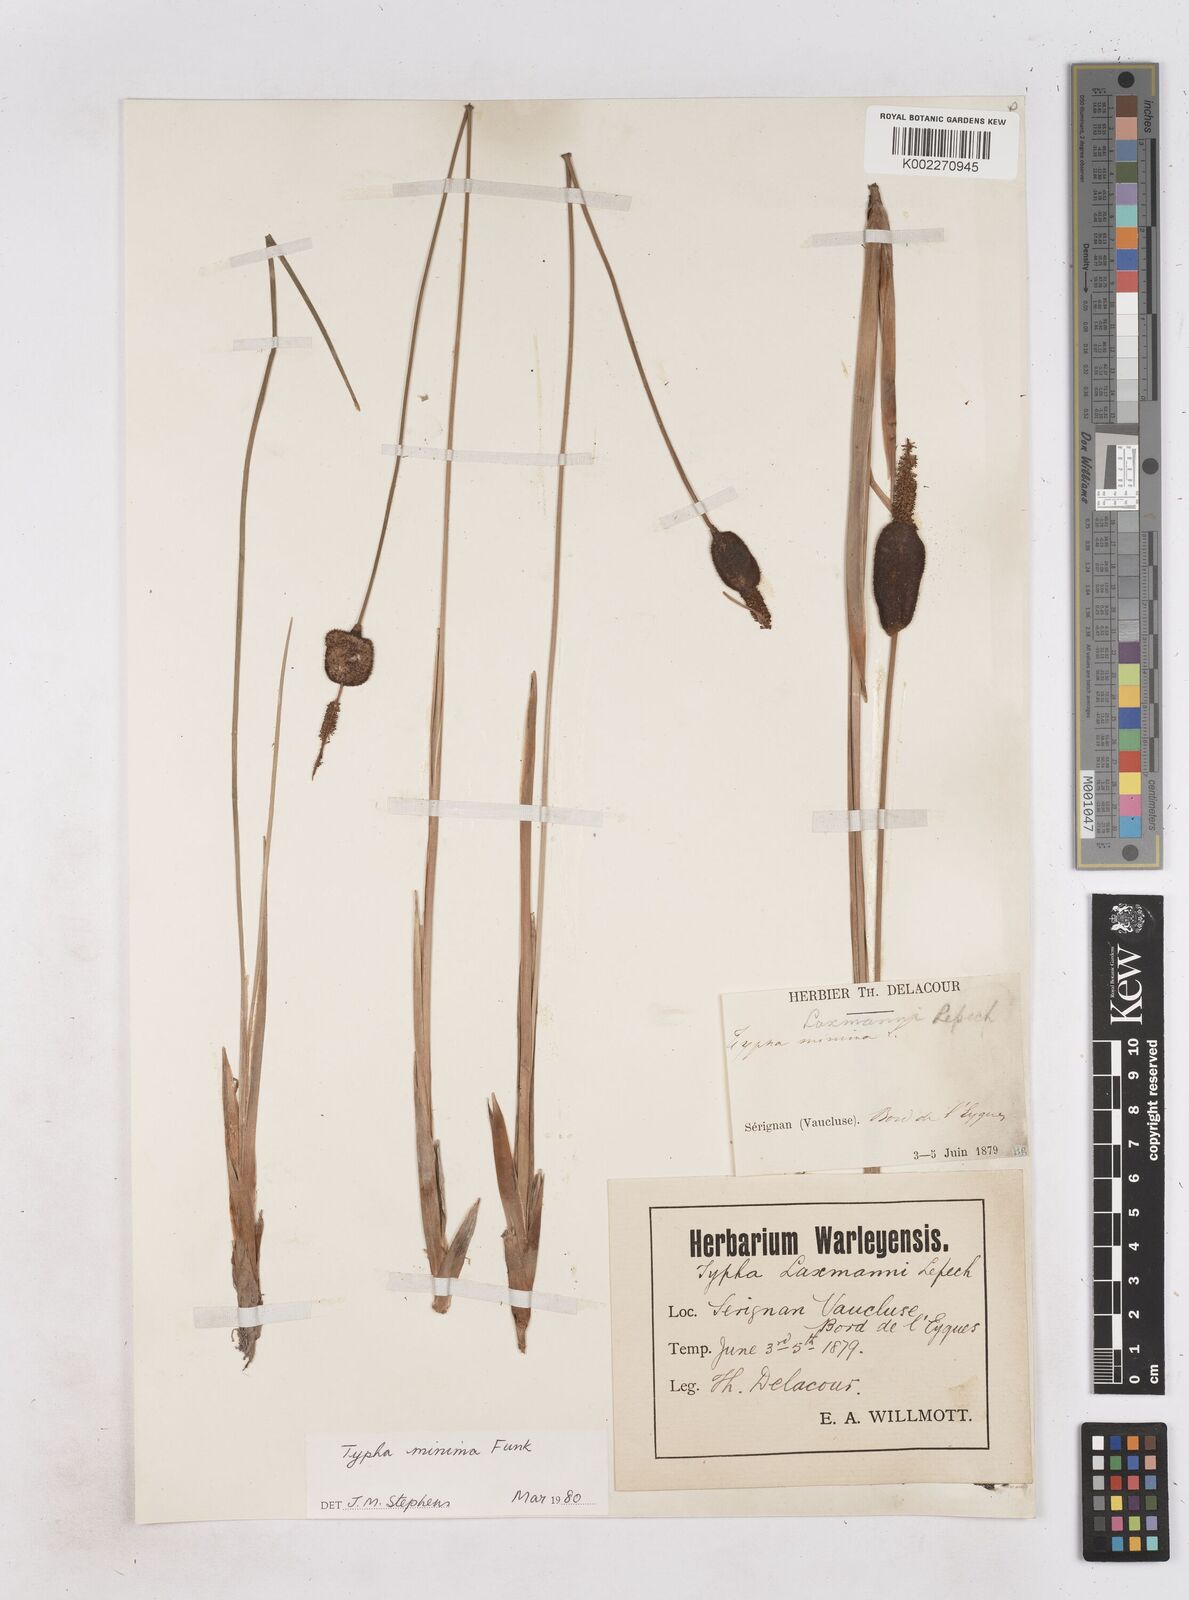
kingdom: Plantae
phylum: Tracheophyta
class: Liliopsida
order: Poales
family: Typhaceae
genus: Typha
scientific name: Typha
